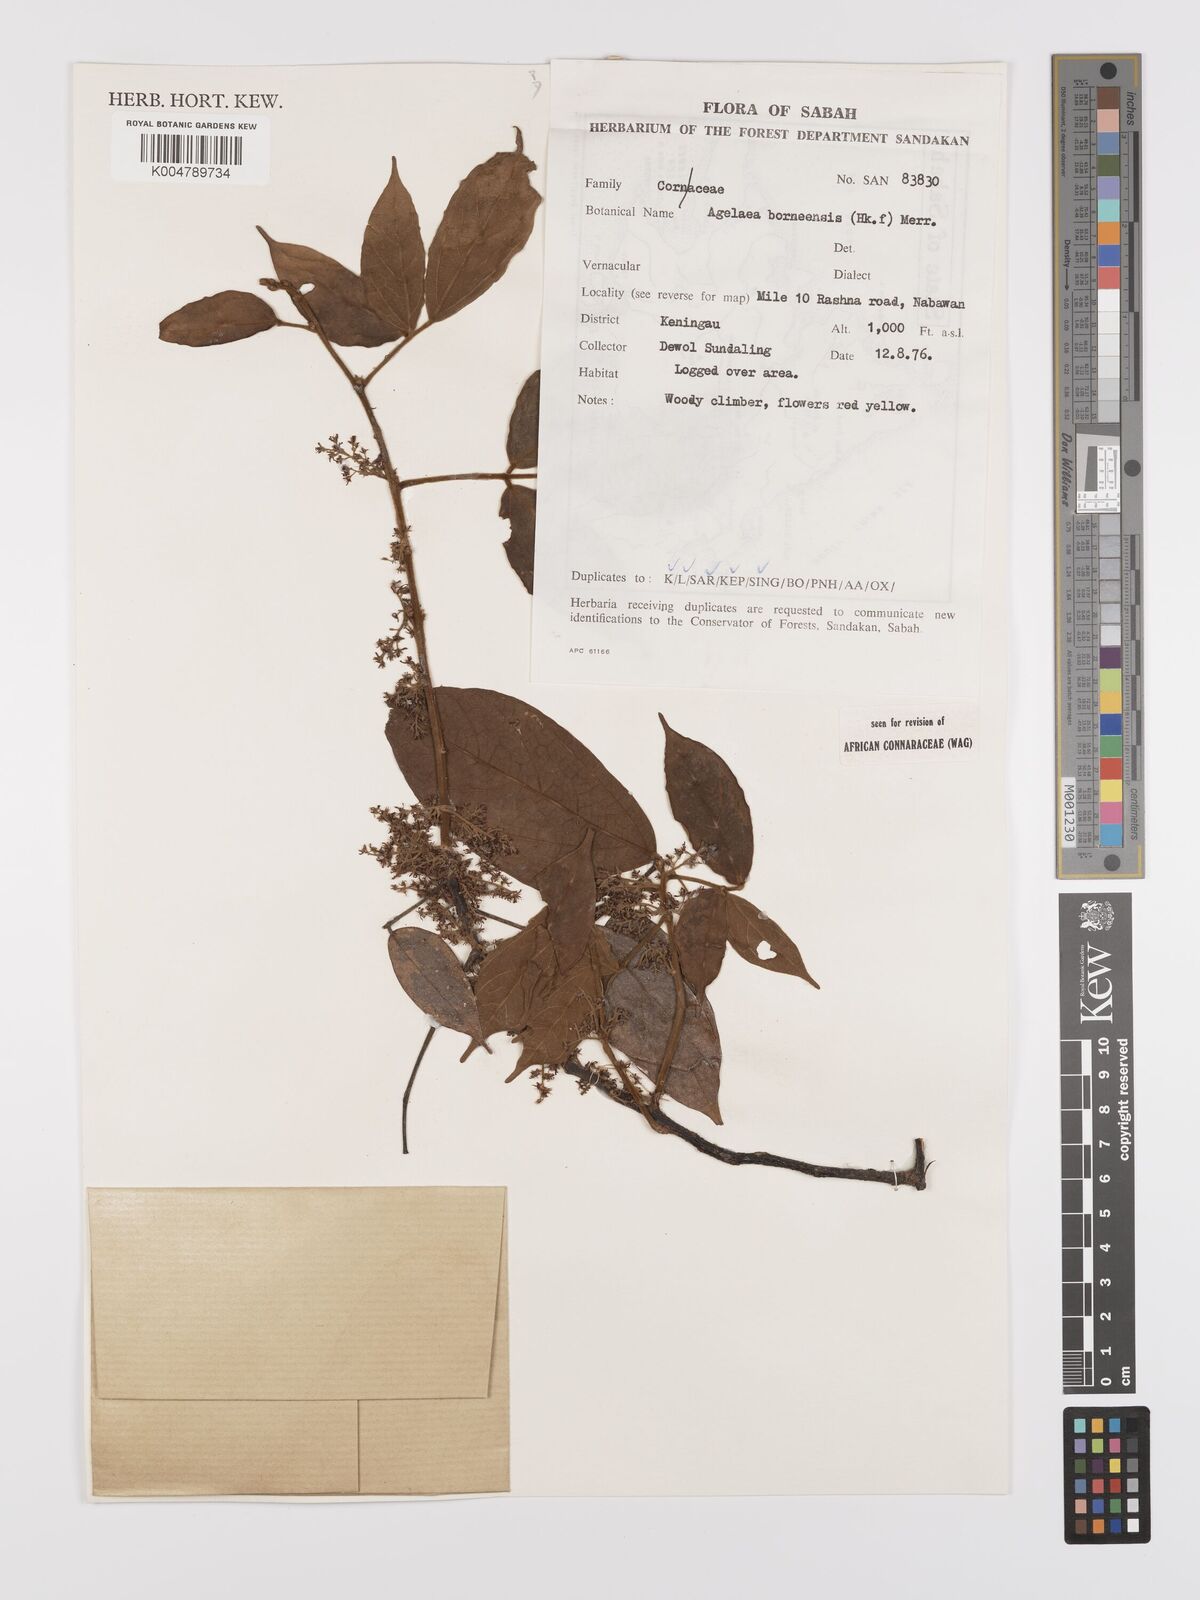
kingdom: Plantae
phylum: Tracheophyta
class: Magnoliopsida
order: Oxalidales
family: Connaraceae
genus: Agelaea
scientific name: Agelaea borneensis
